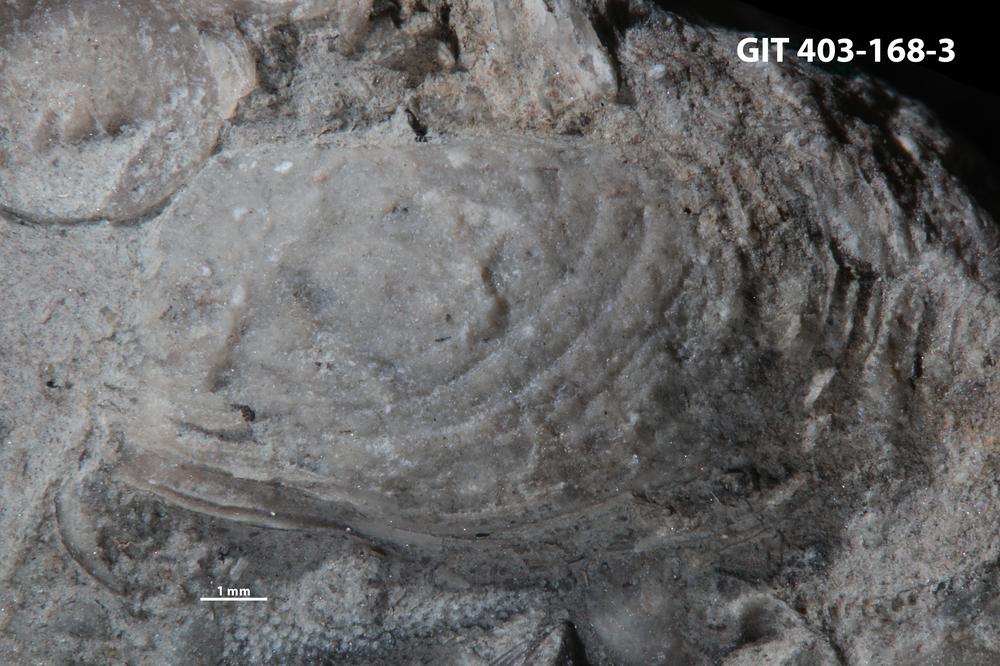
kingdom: Animalia
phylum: Mollusca
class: Bivalvia
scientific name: Bivalvia
